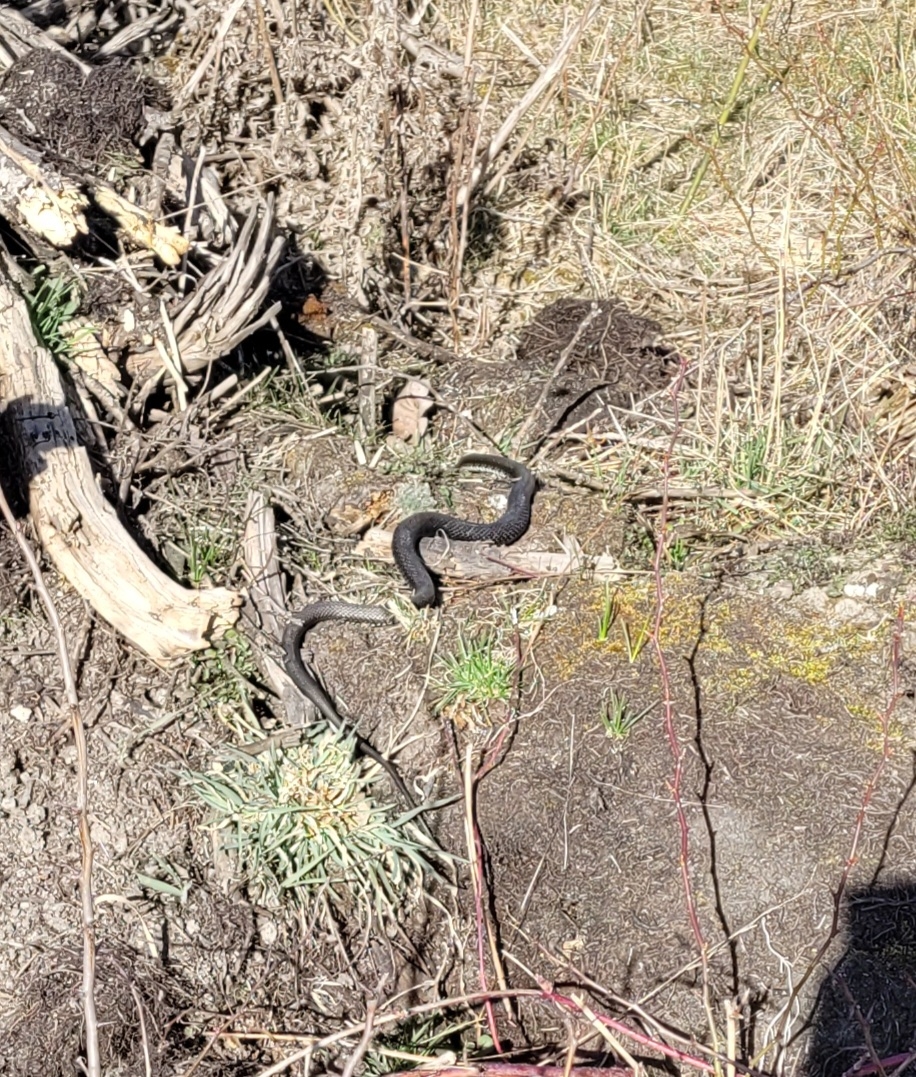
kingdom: Animalia
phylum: Chordata
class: Squamata
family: Colubridae
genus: Natrix
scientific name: Natrix natrix
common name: Snog
